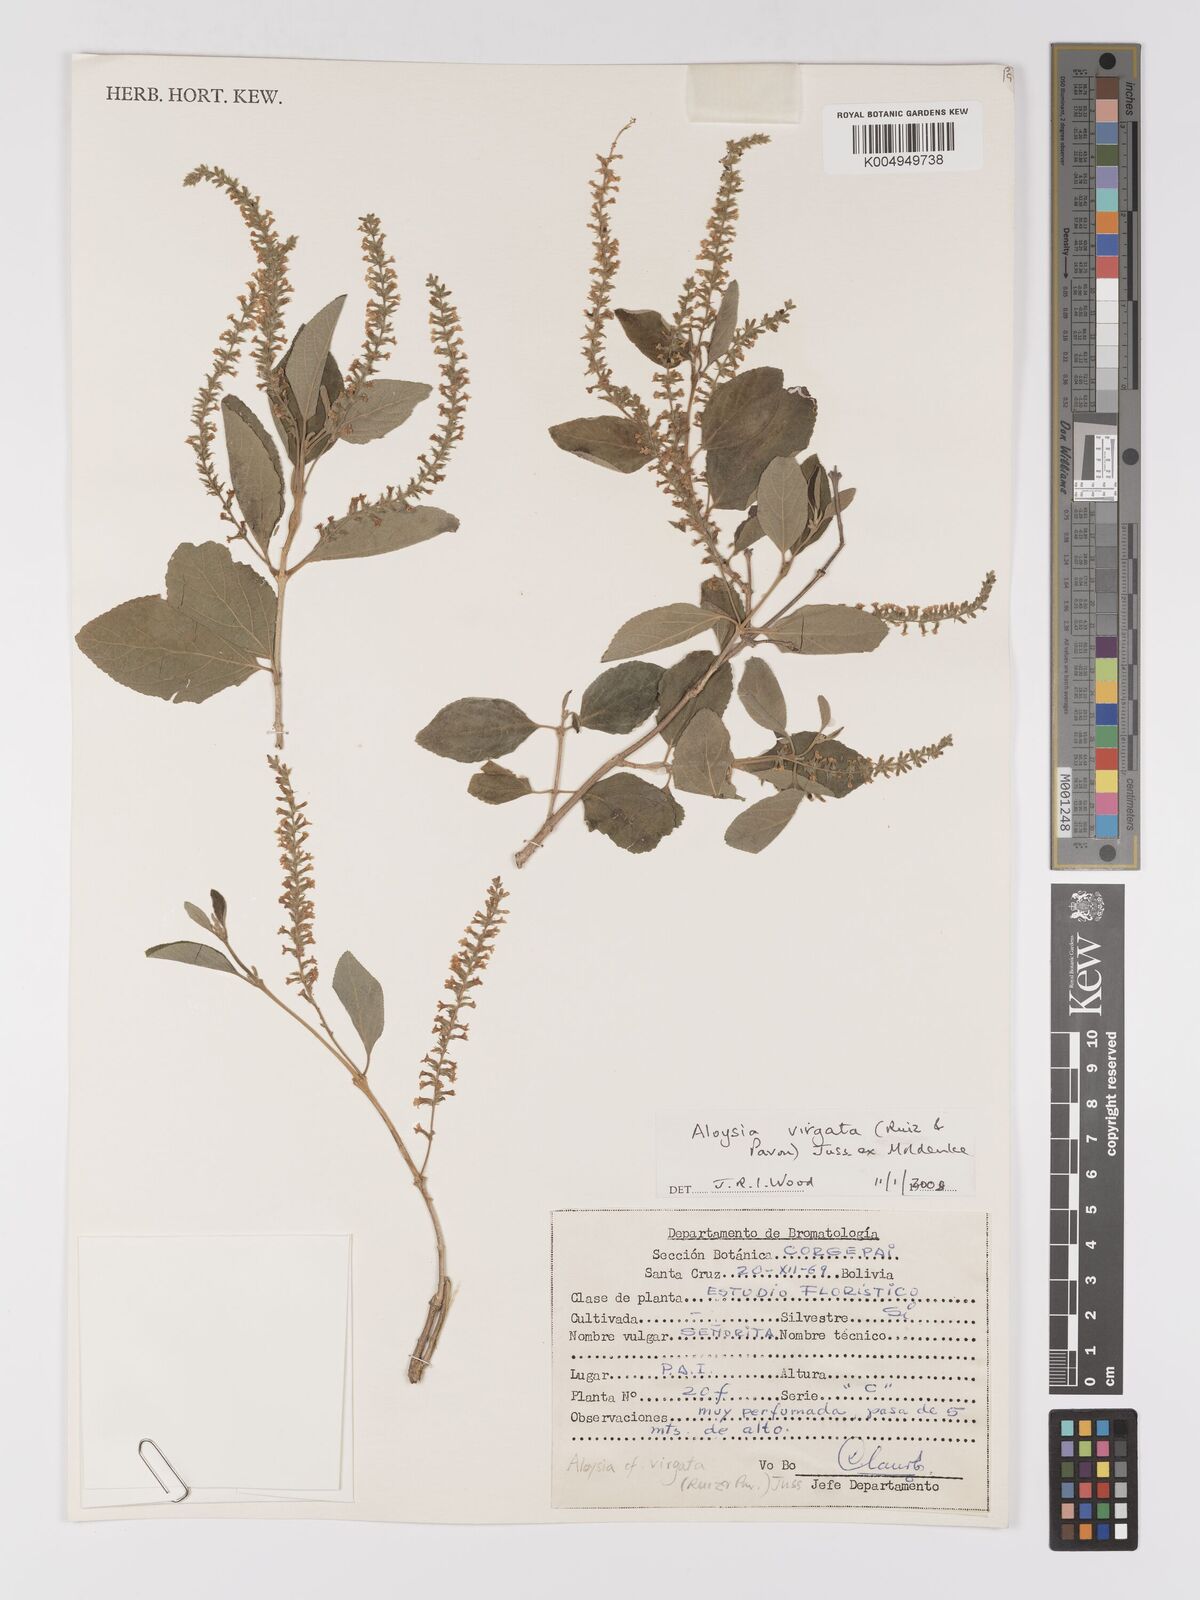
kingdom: Plantae
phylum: Tracheophyta
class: Magnoliopsida
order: Lamiales
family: Verbenaceae
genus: Aloysia
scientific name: Aloysia virgata
